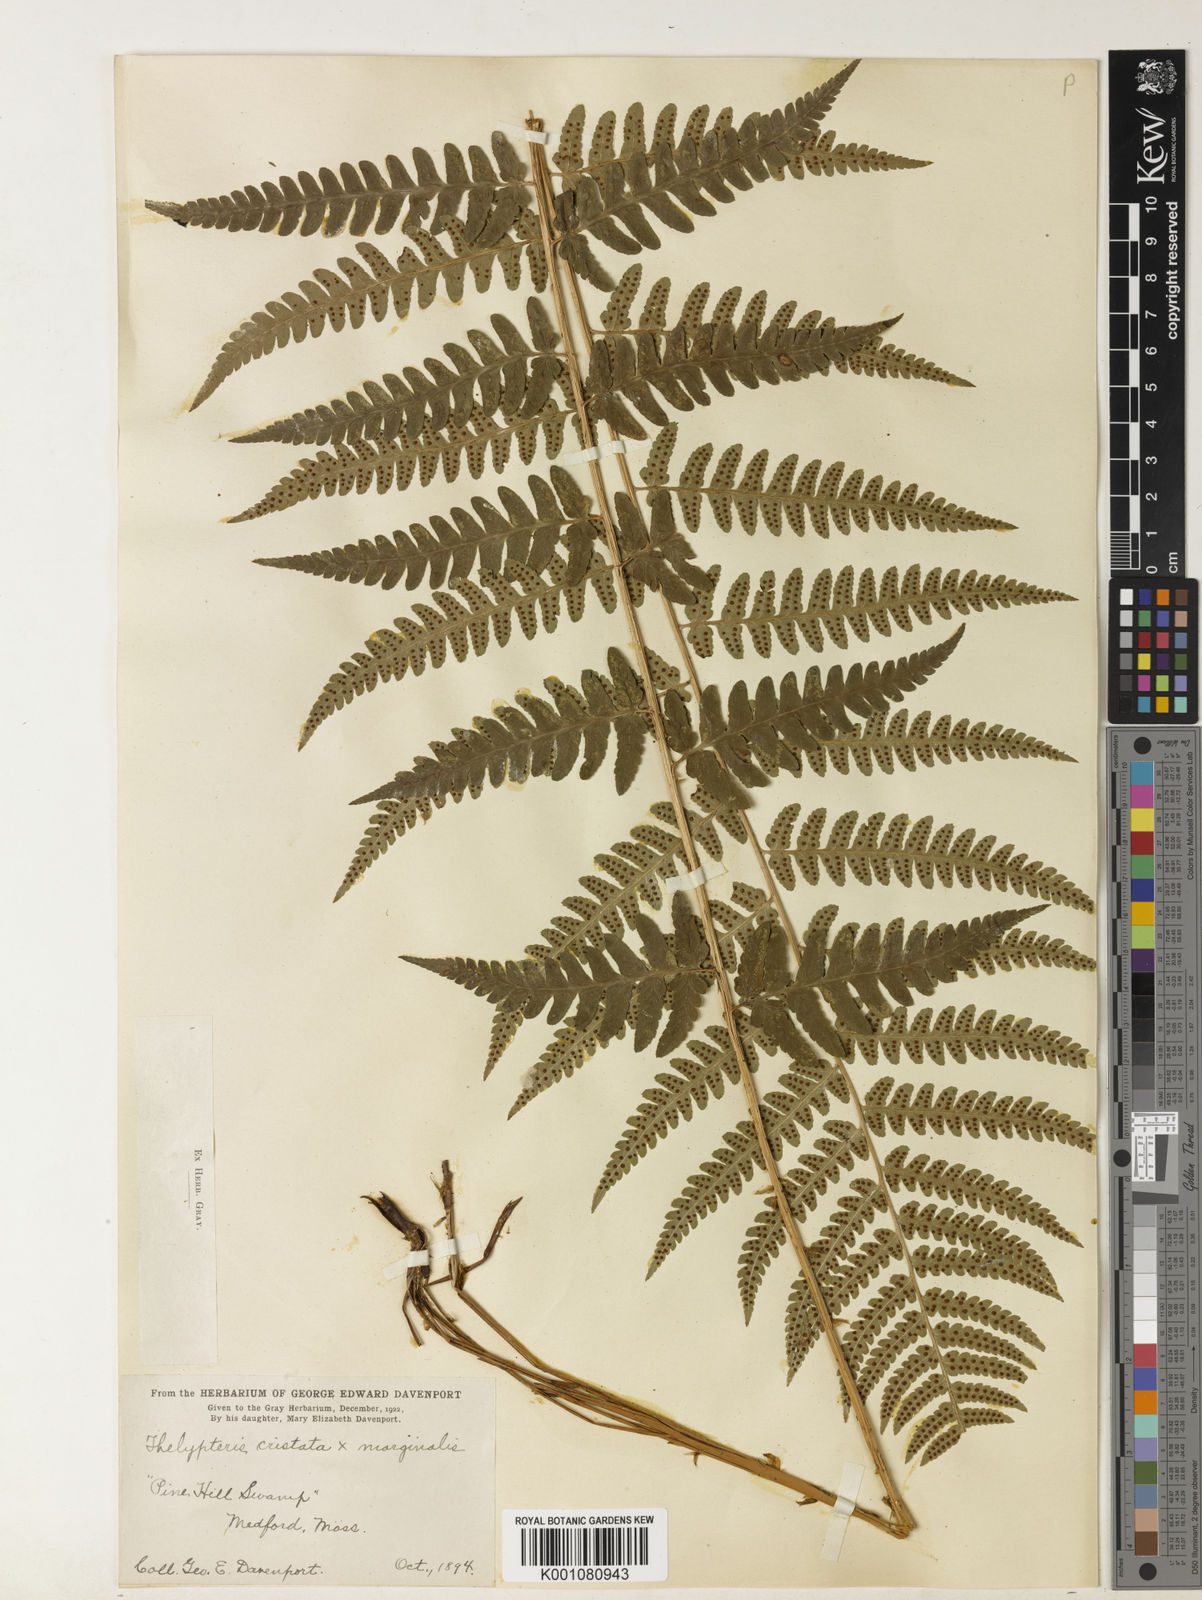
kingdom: Plantae
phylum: Tracheophyta
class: Polypodiopsida
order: Polypodiales
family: Dryopteridaceae
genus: Dryopteris
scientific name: Dryopteris
